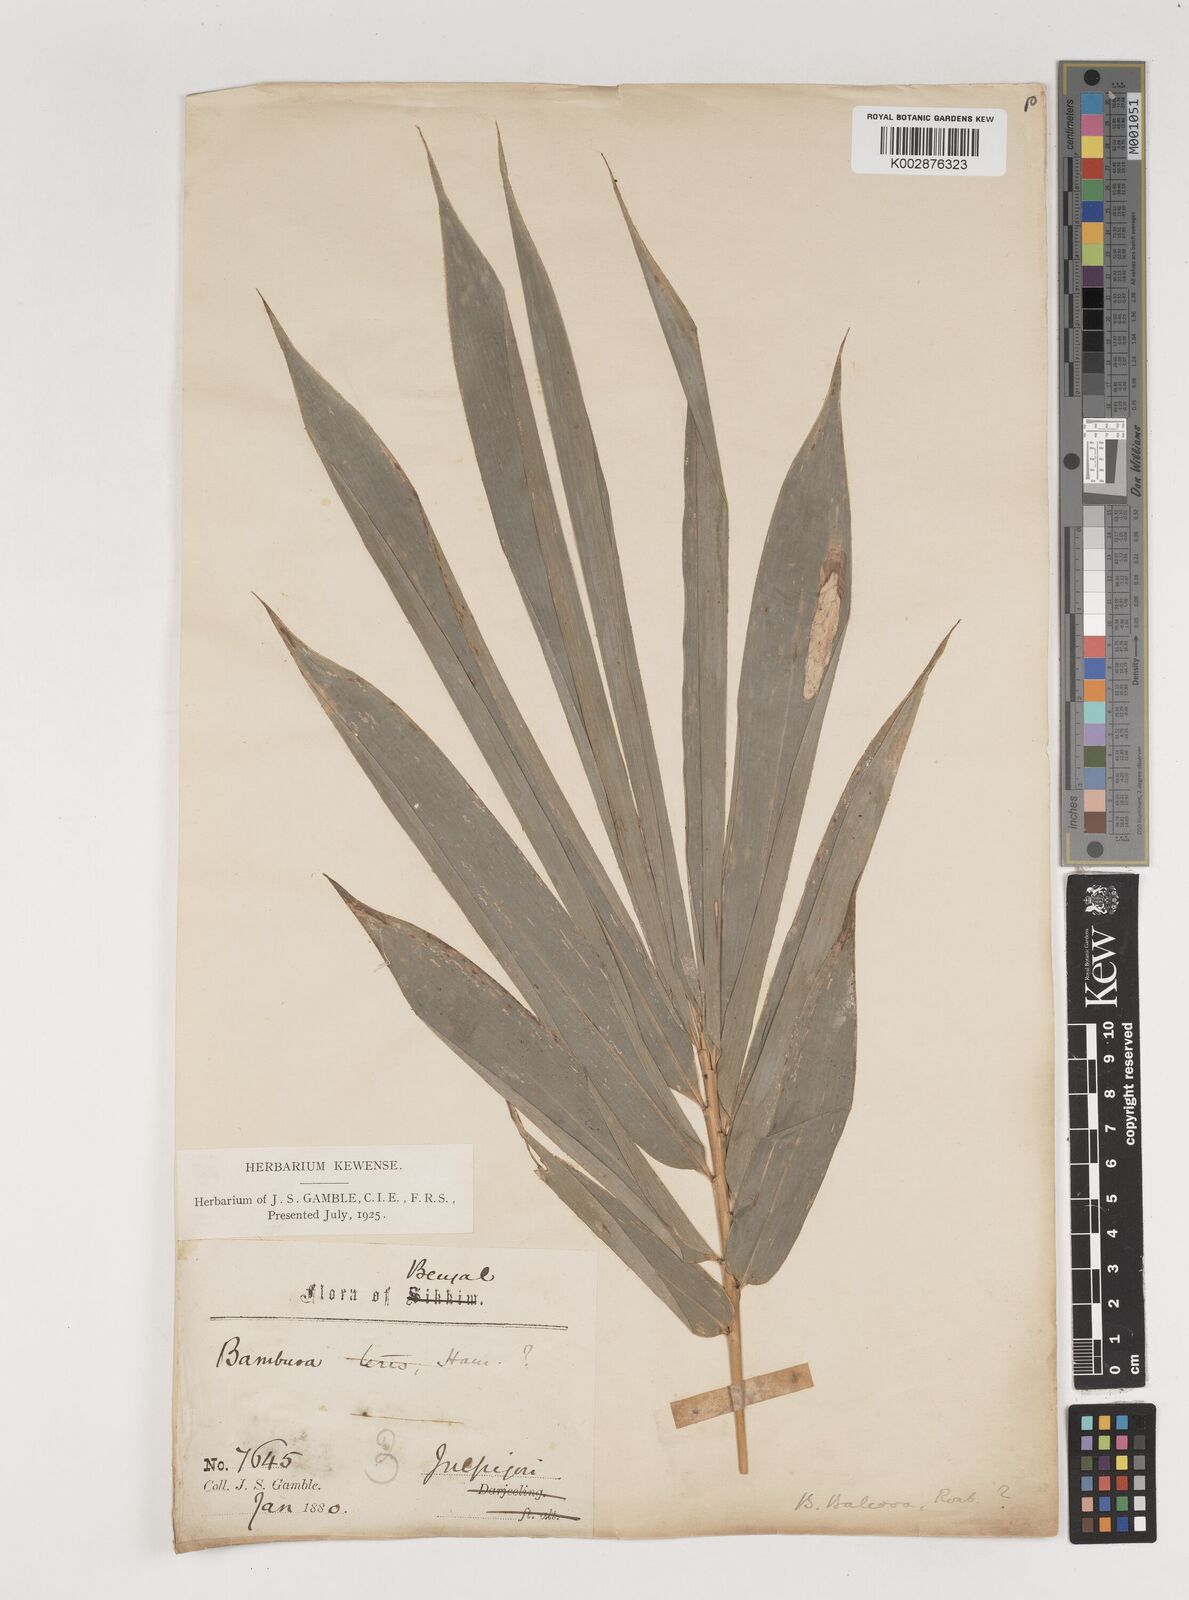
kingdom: Plantae
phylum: Tracheophyta
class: Liliopsida
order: Poales
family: Poaceae
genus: Bambusa
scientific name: Bambusa balcooa
